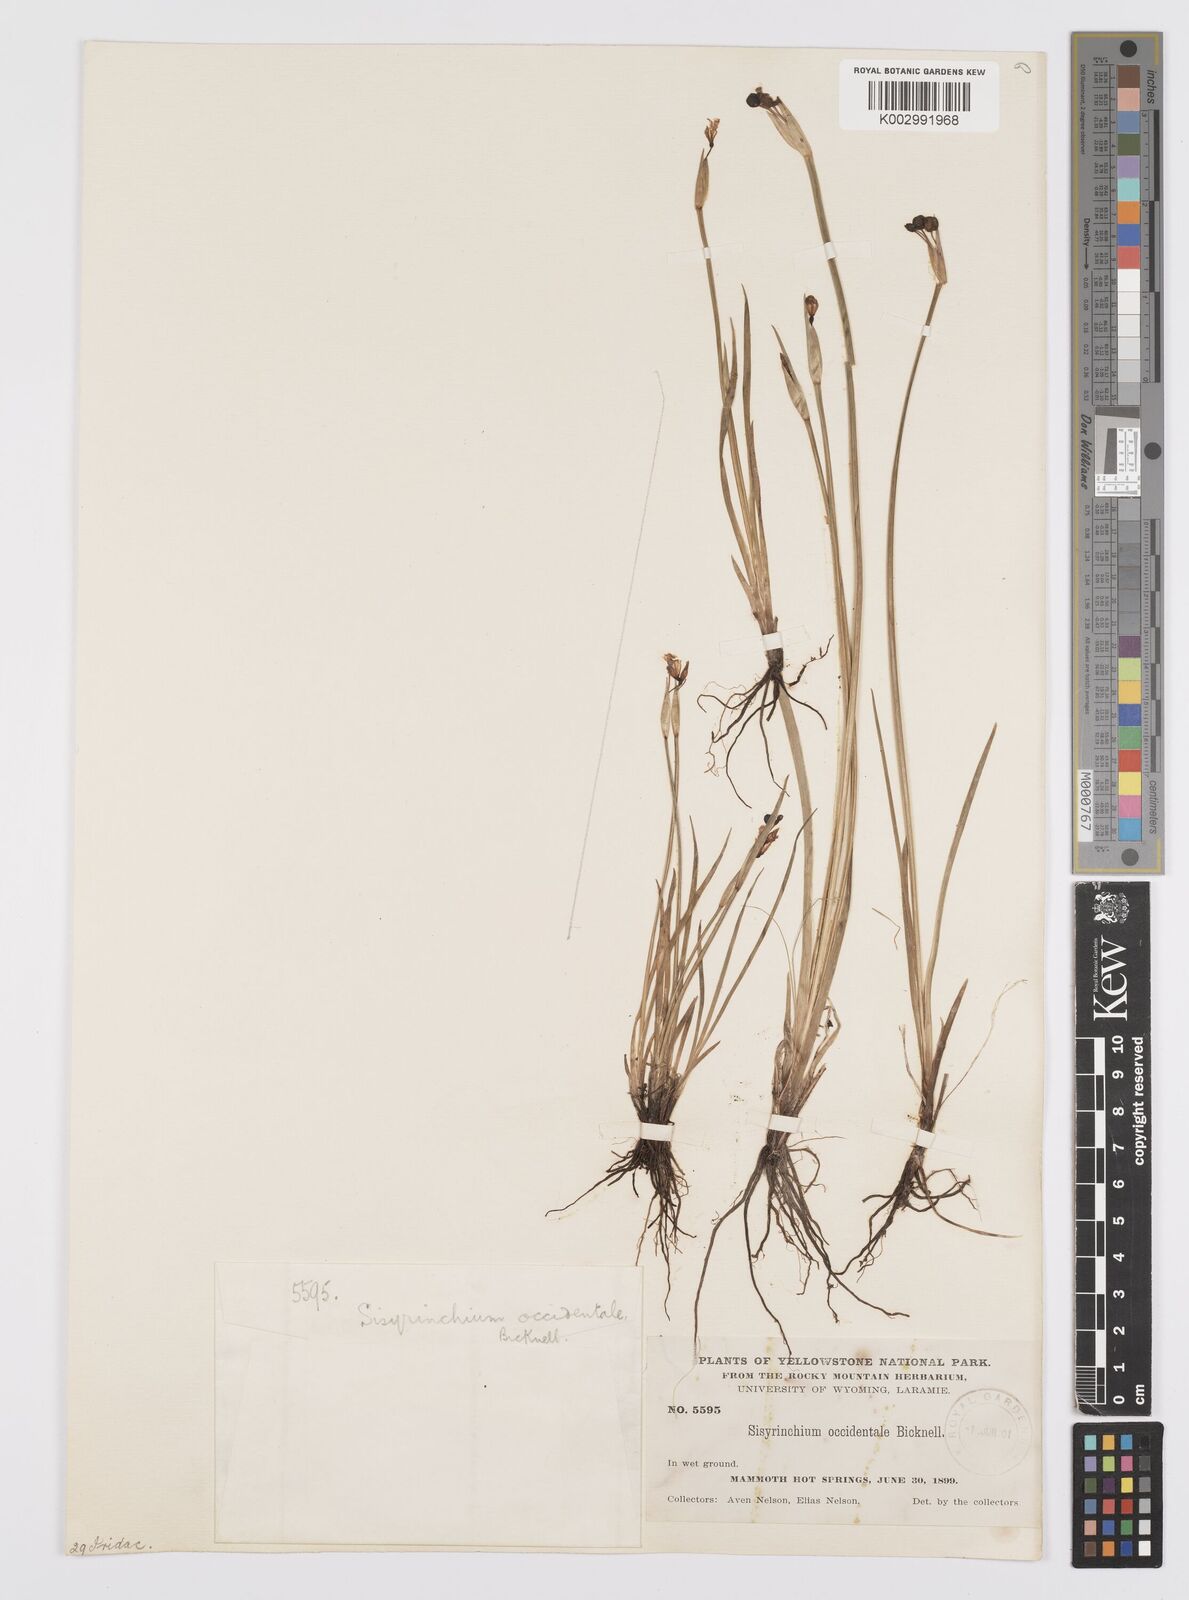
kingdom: Plantae
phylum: Tracheophyta
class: Liliopsida
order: Asparagales
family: Iridaceae
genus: Sisyrinchium
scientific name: Sisyrinchium idahoense
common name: Idaho blue-eyed-grass
